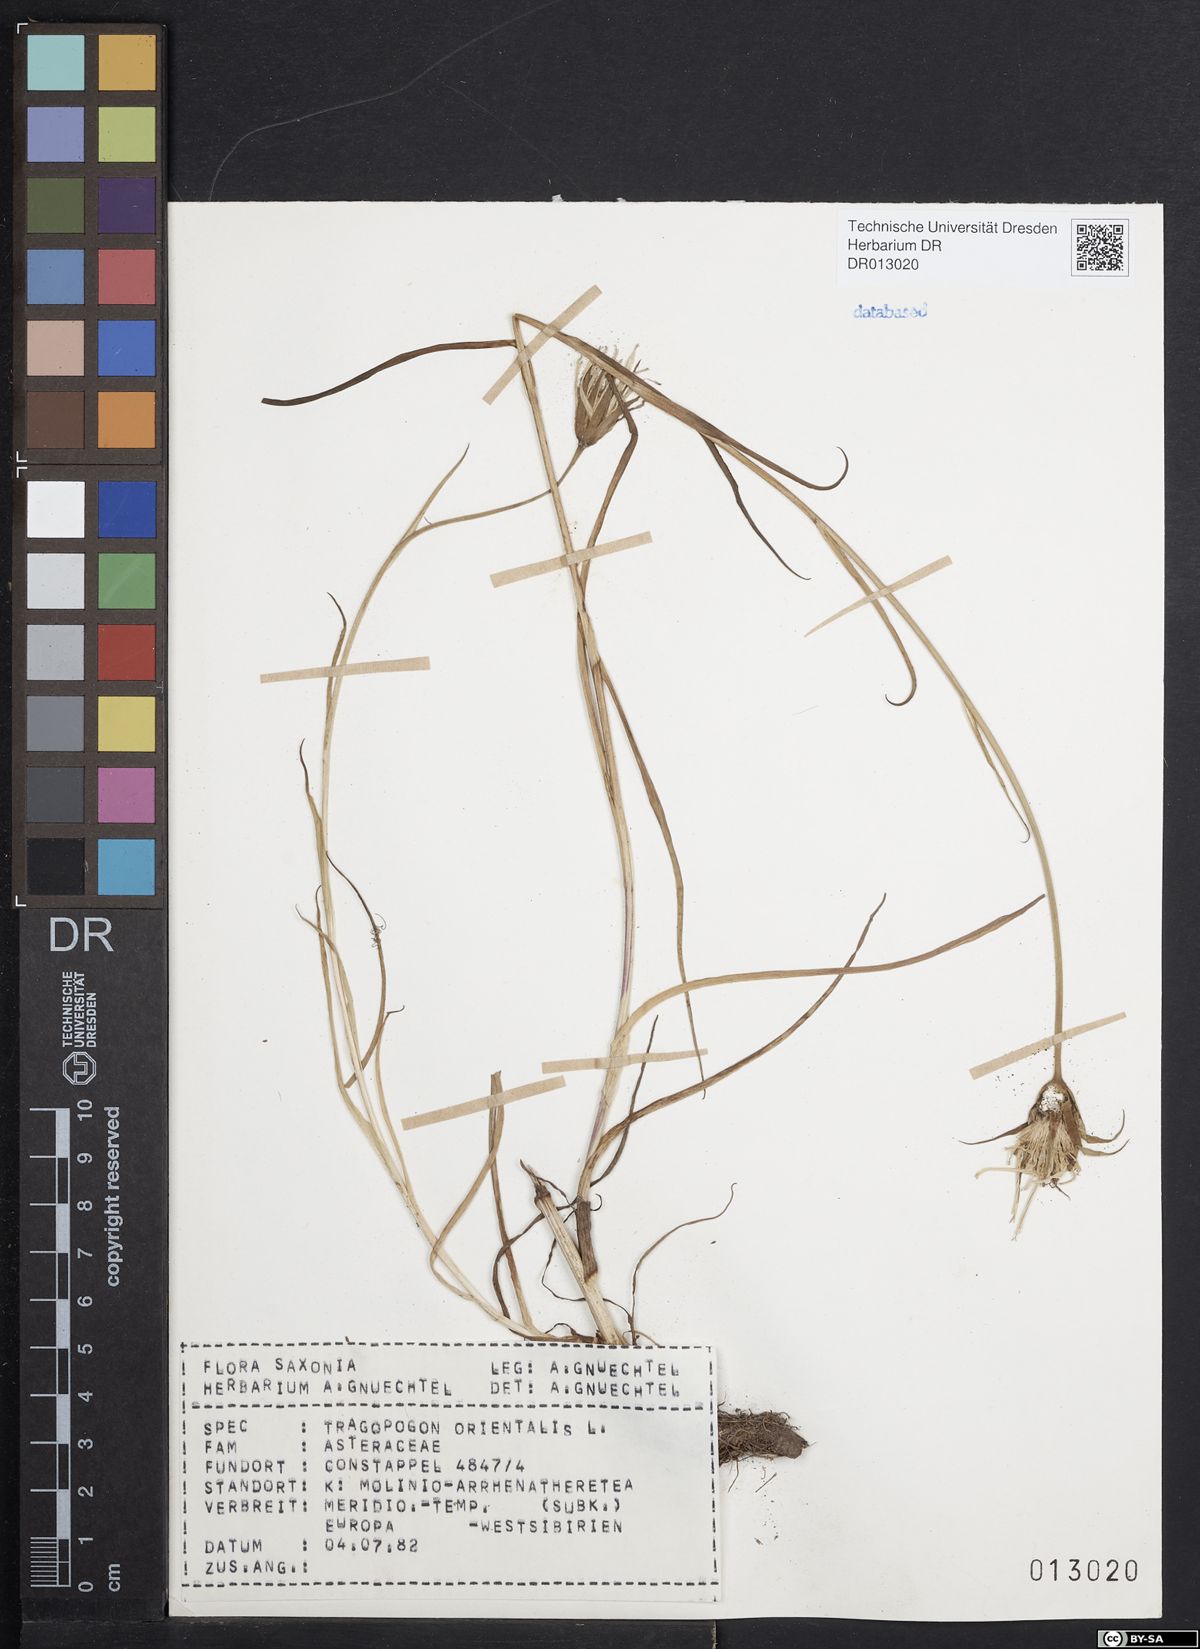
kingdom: Plantae
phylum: Tracheophyta
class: Magnoliopsida
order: Asterales
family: Asteraceae
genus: Tragopogon
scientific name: Tragopogon orientalis
